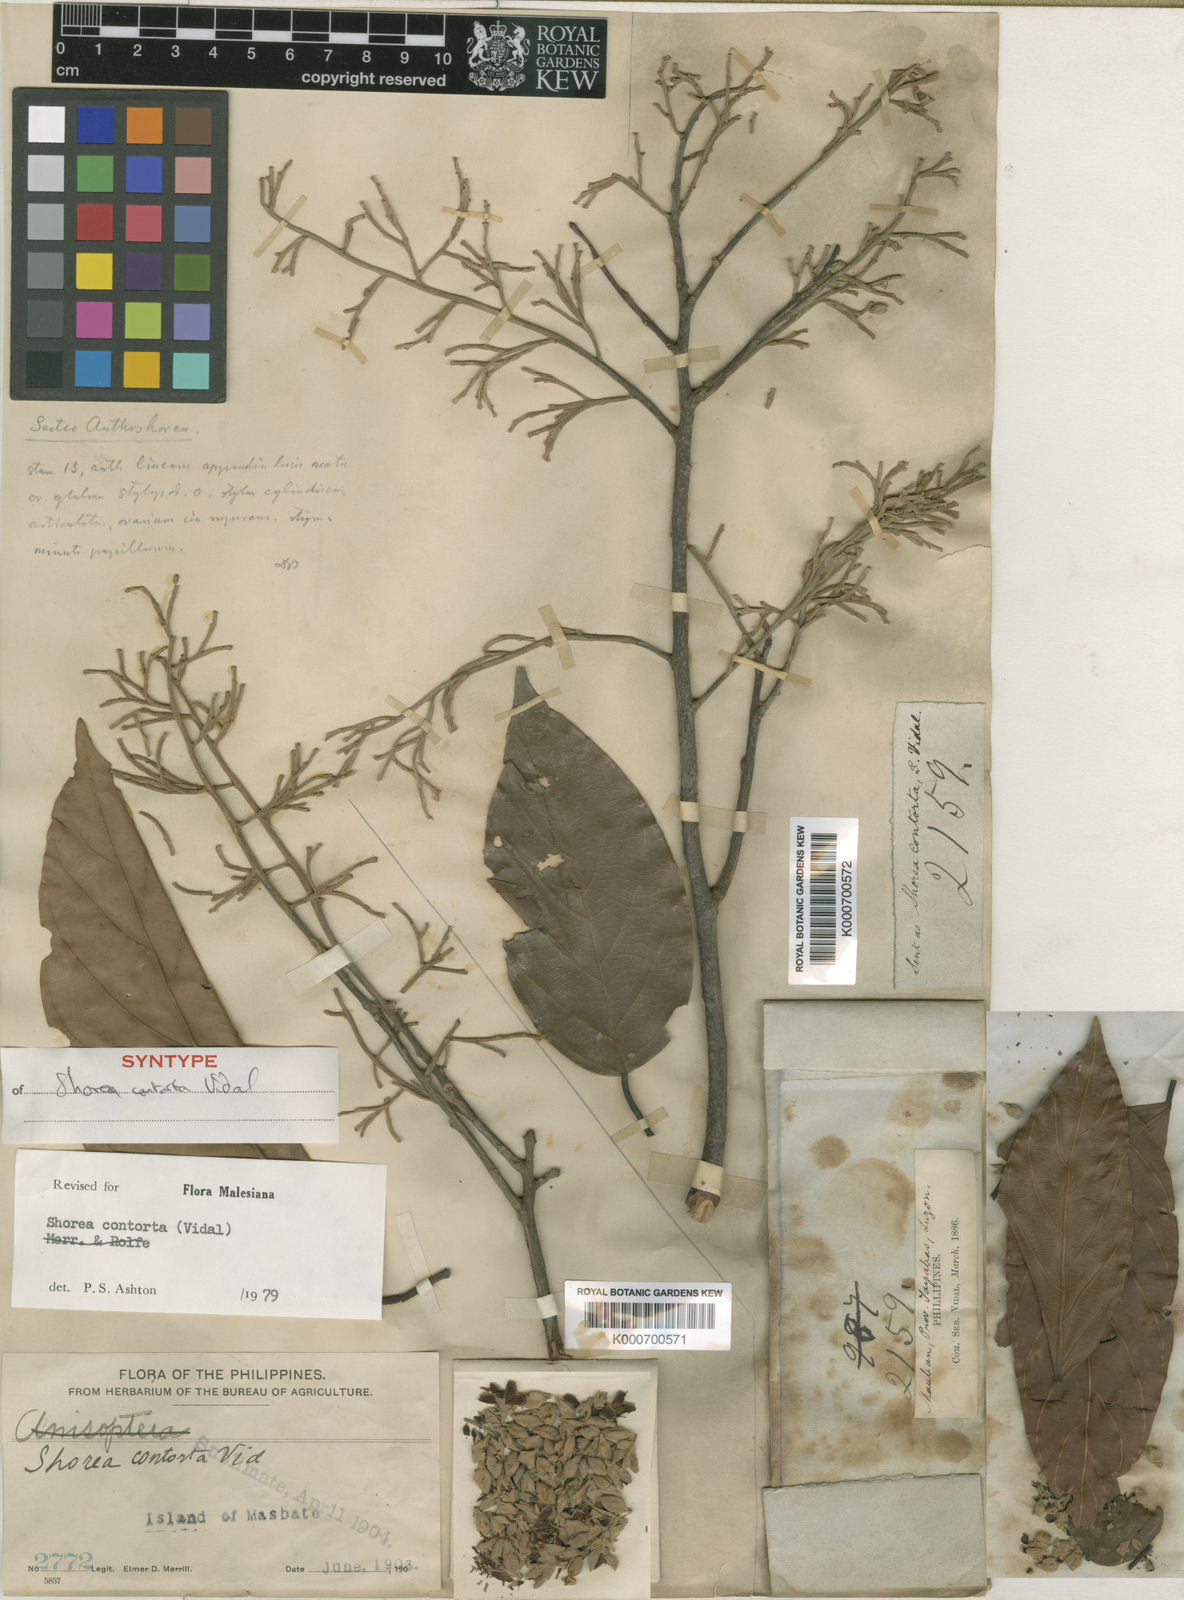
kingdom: Plantae
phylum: Tracheophyta
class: Magnoliopsida
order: Malvales
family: Dipterocarpaceae
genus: Pentacme
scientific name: Pentacme contorta
